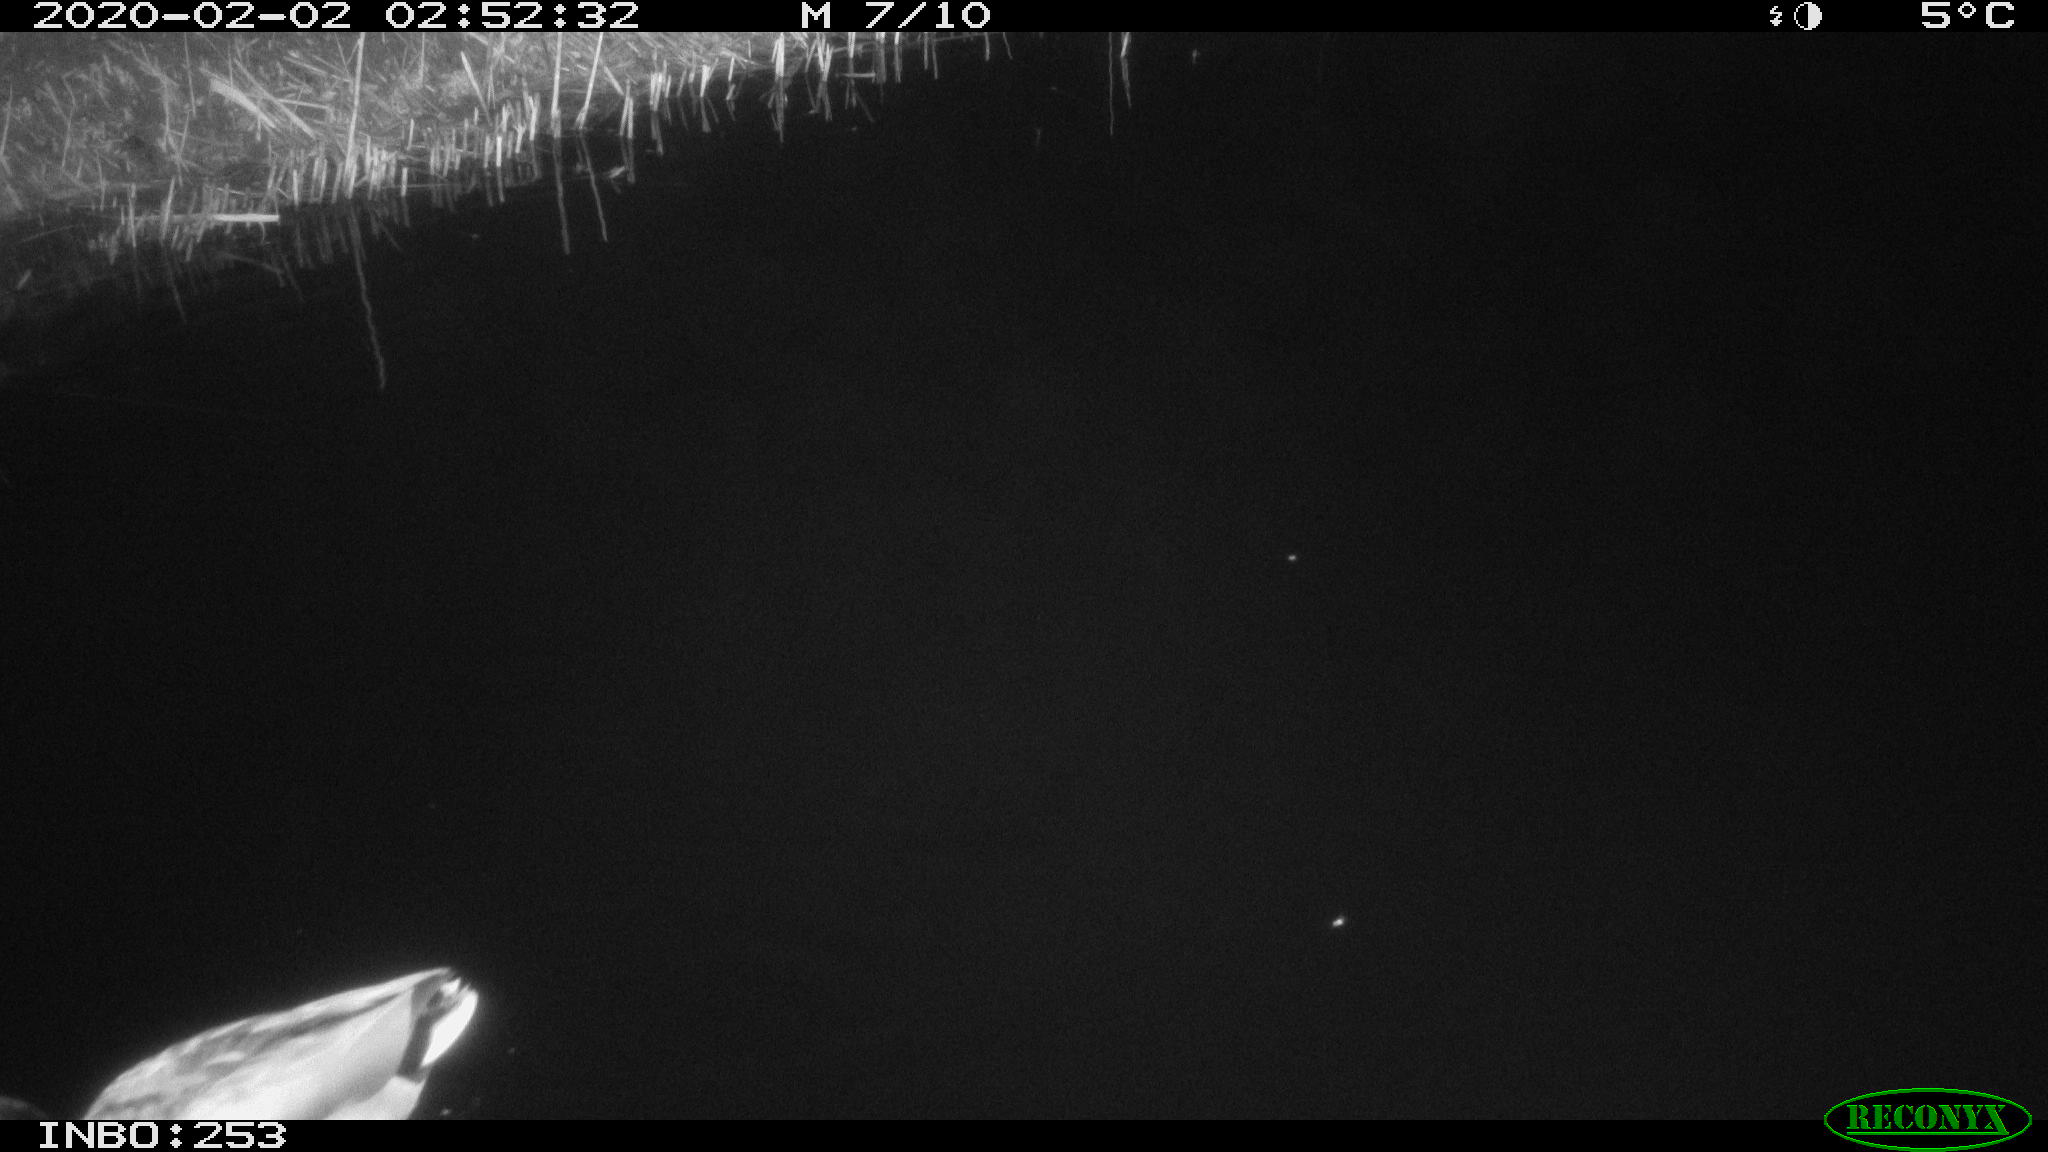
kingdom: Animalia
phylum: Chordata
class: Aves
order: Anseriformes
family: Anatidae
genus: Anas
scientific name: Anas platyrhynchos
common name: Mallard
